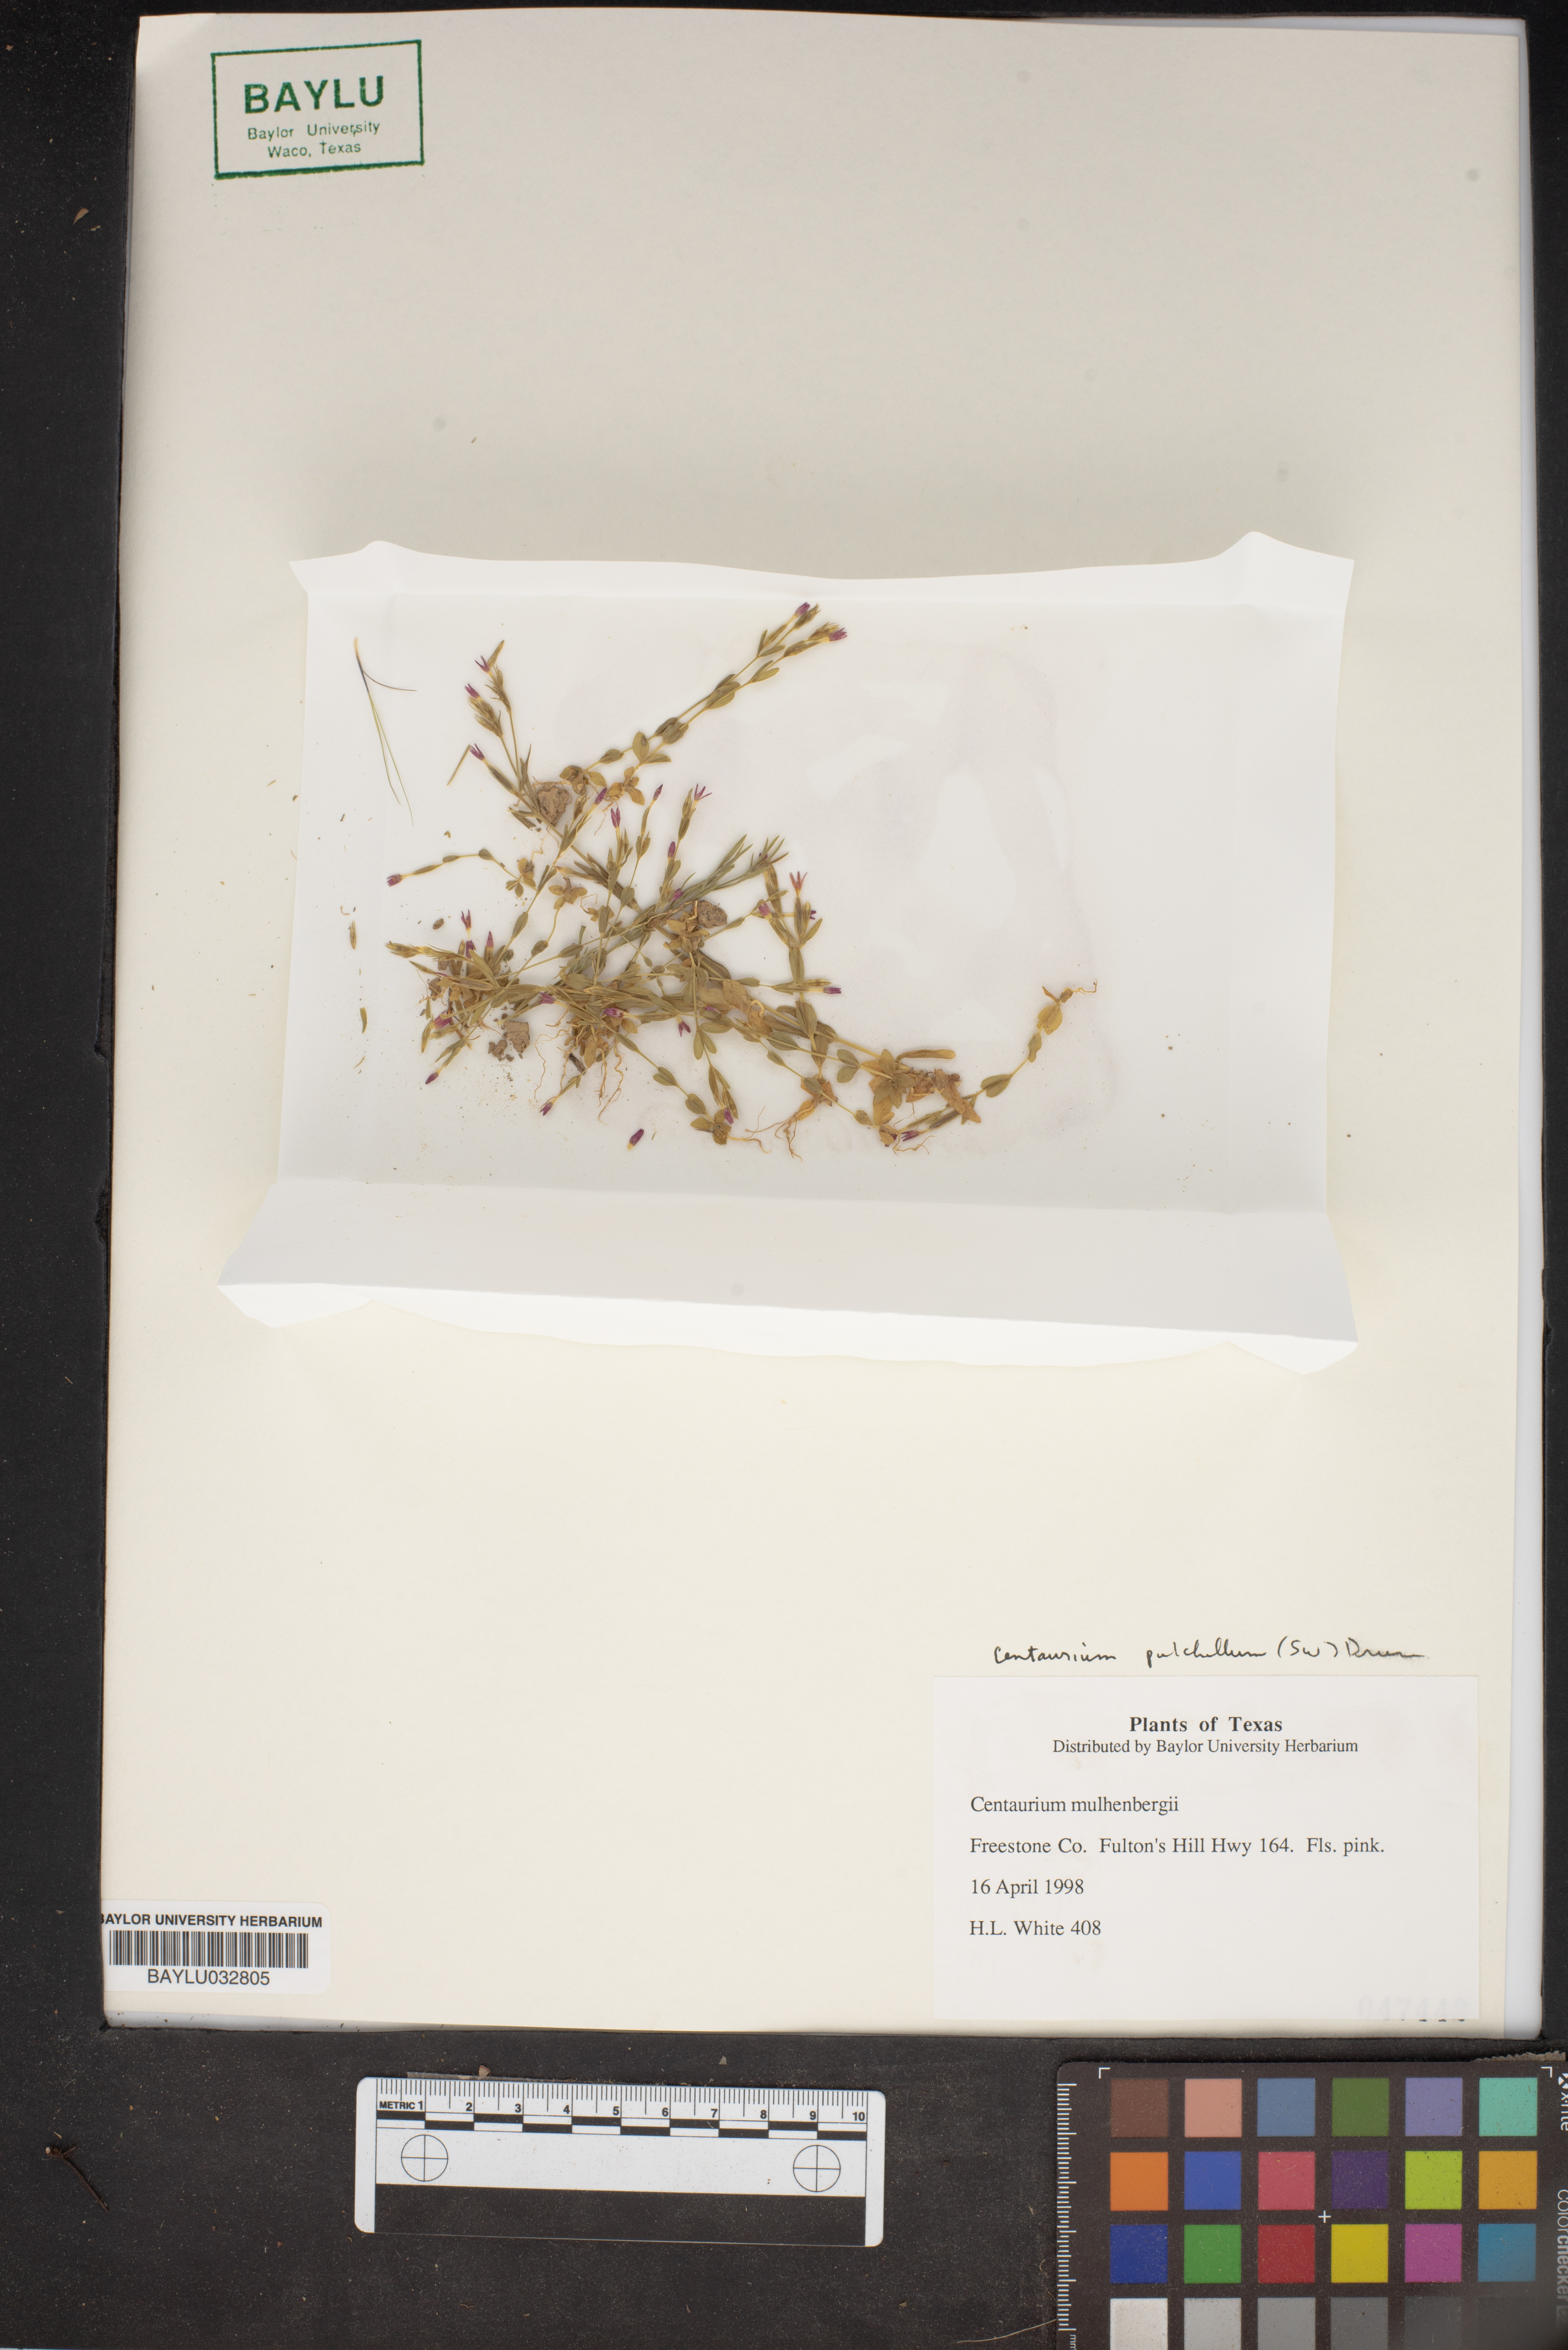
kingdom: Plantae
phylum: Tracheophyta
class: Magnoliopsida
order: Gentianales
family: Gentianaceae
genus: Zeltnera
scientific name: Zeltnera muhlenbergii
